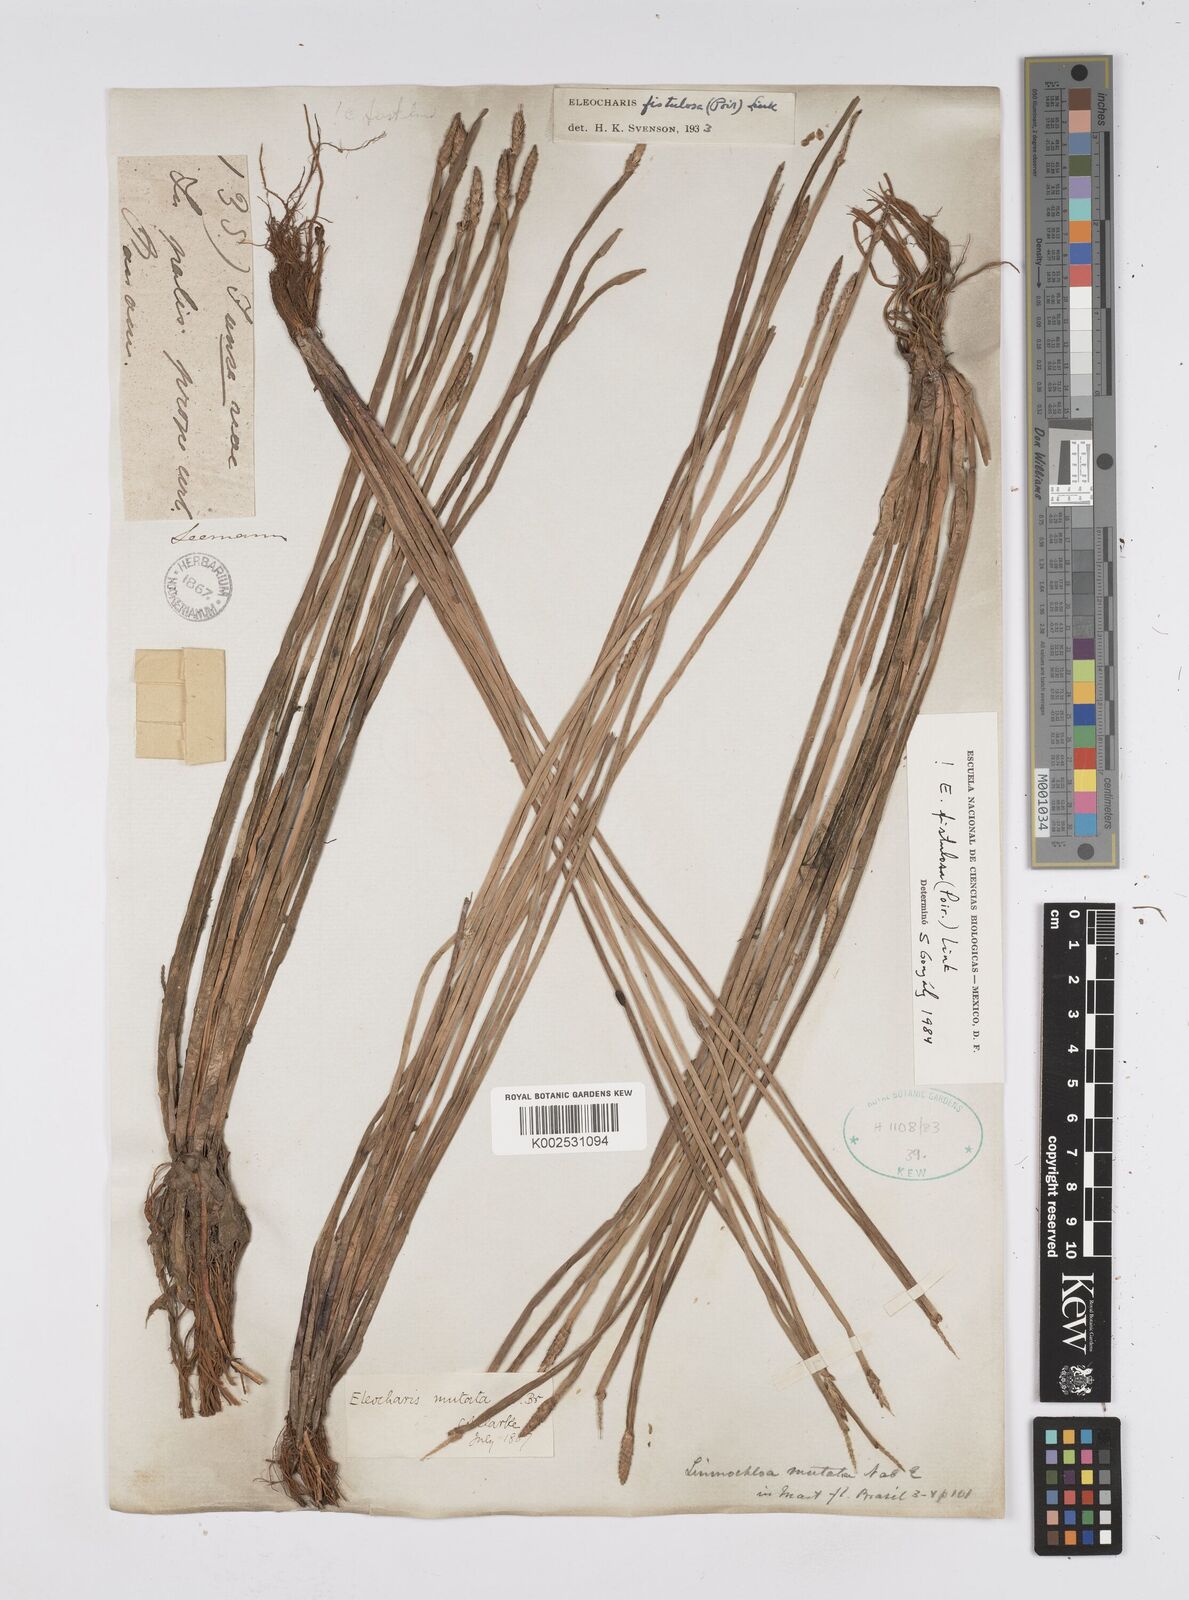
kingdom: Plantae
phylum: Tracheophyta
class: Liliopsida
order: Poales
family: Cyperaceae
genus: Eleocharis
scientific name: Eleocharis acutangula
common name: Acute spikerush
